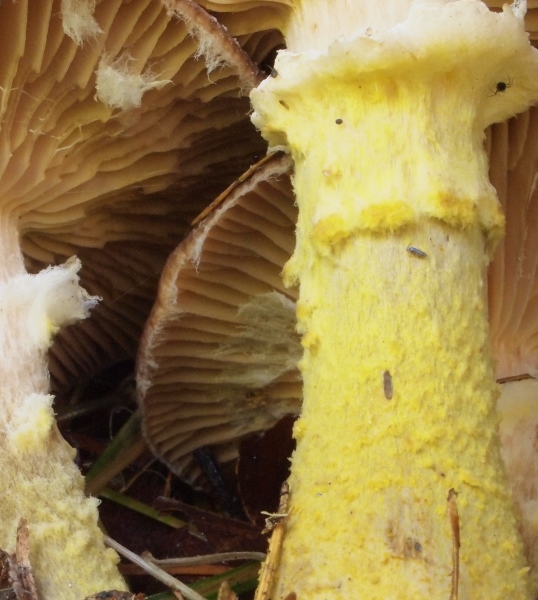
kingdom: Fungi
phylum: Basidiomycota
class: Agaricomycetes
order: Agaricales
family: Physalacriaceae
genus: Armillaria
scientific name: Armillaria lutea
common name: køllestokket honningsvamp
